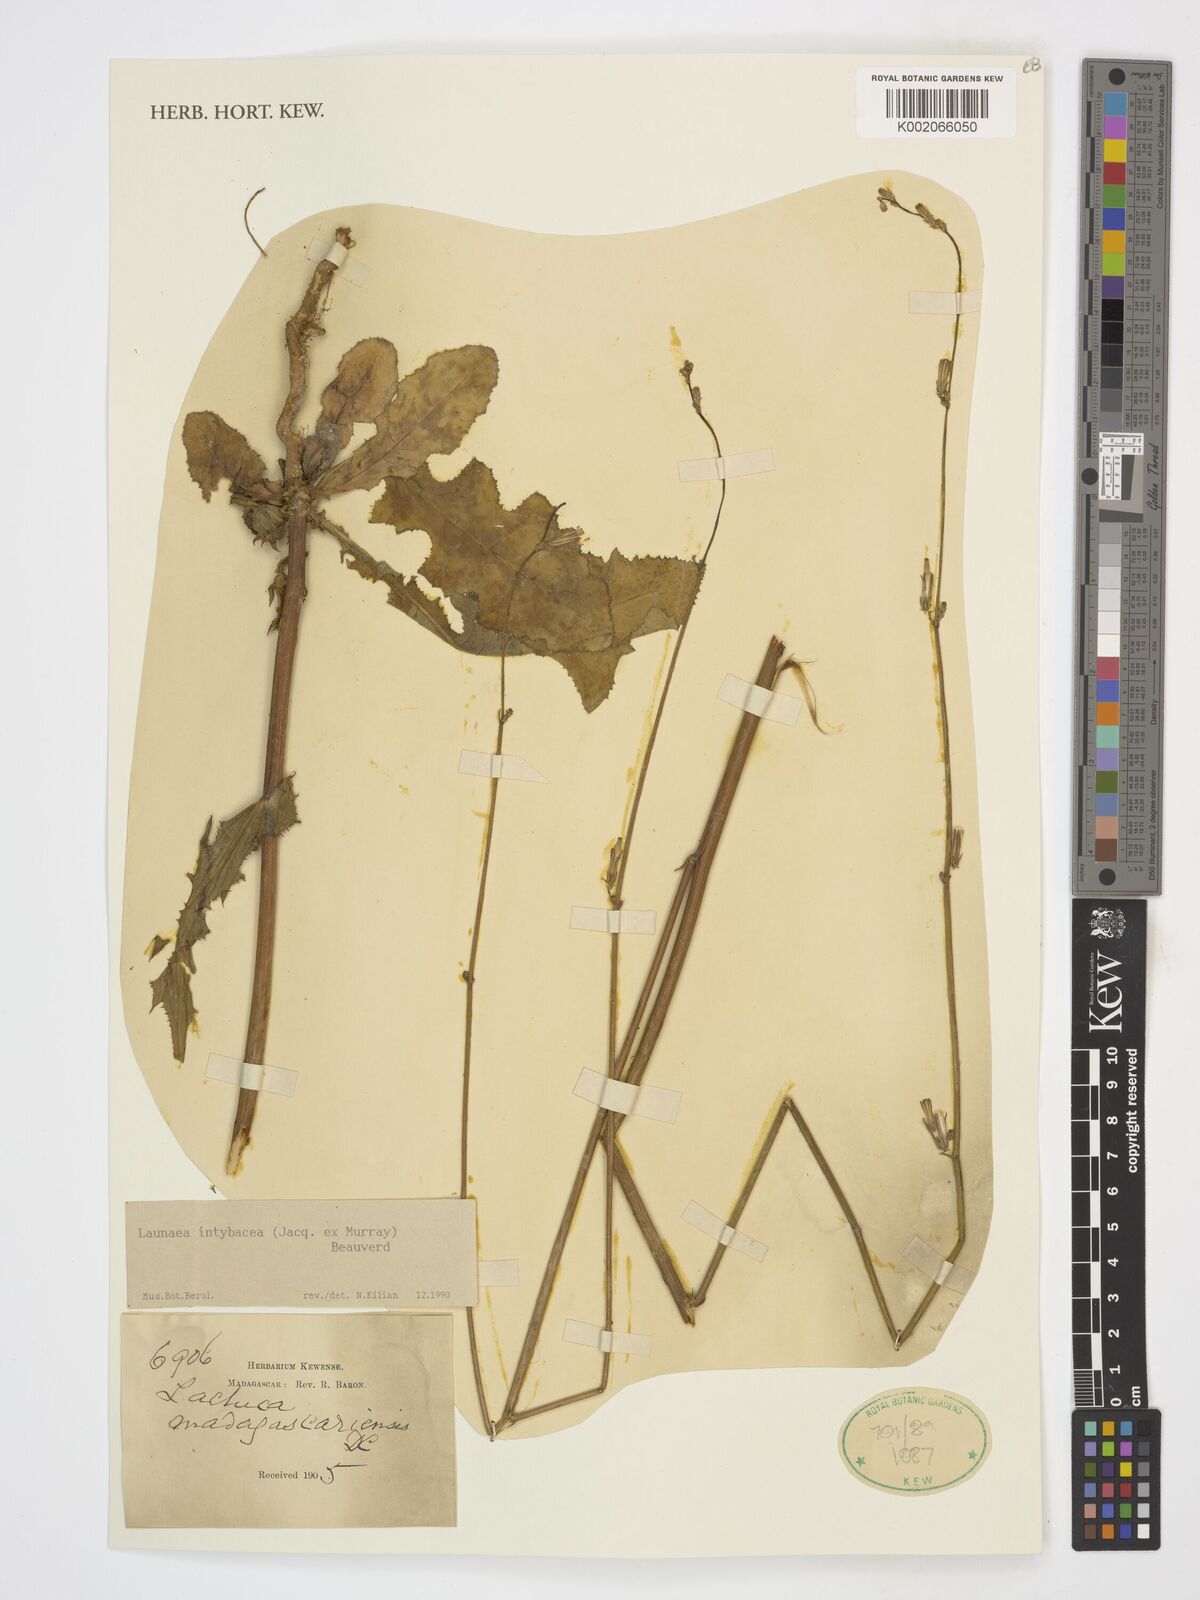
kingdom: Plantae
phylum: Tracheophyta
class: Magnoliopsida
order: Asterales
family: Asteraceae
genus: Launaea
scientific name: Launaea intybacea
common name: Achicoria azul
